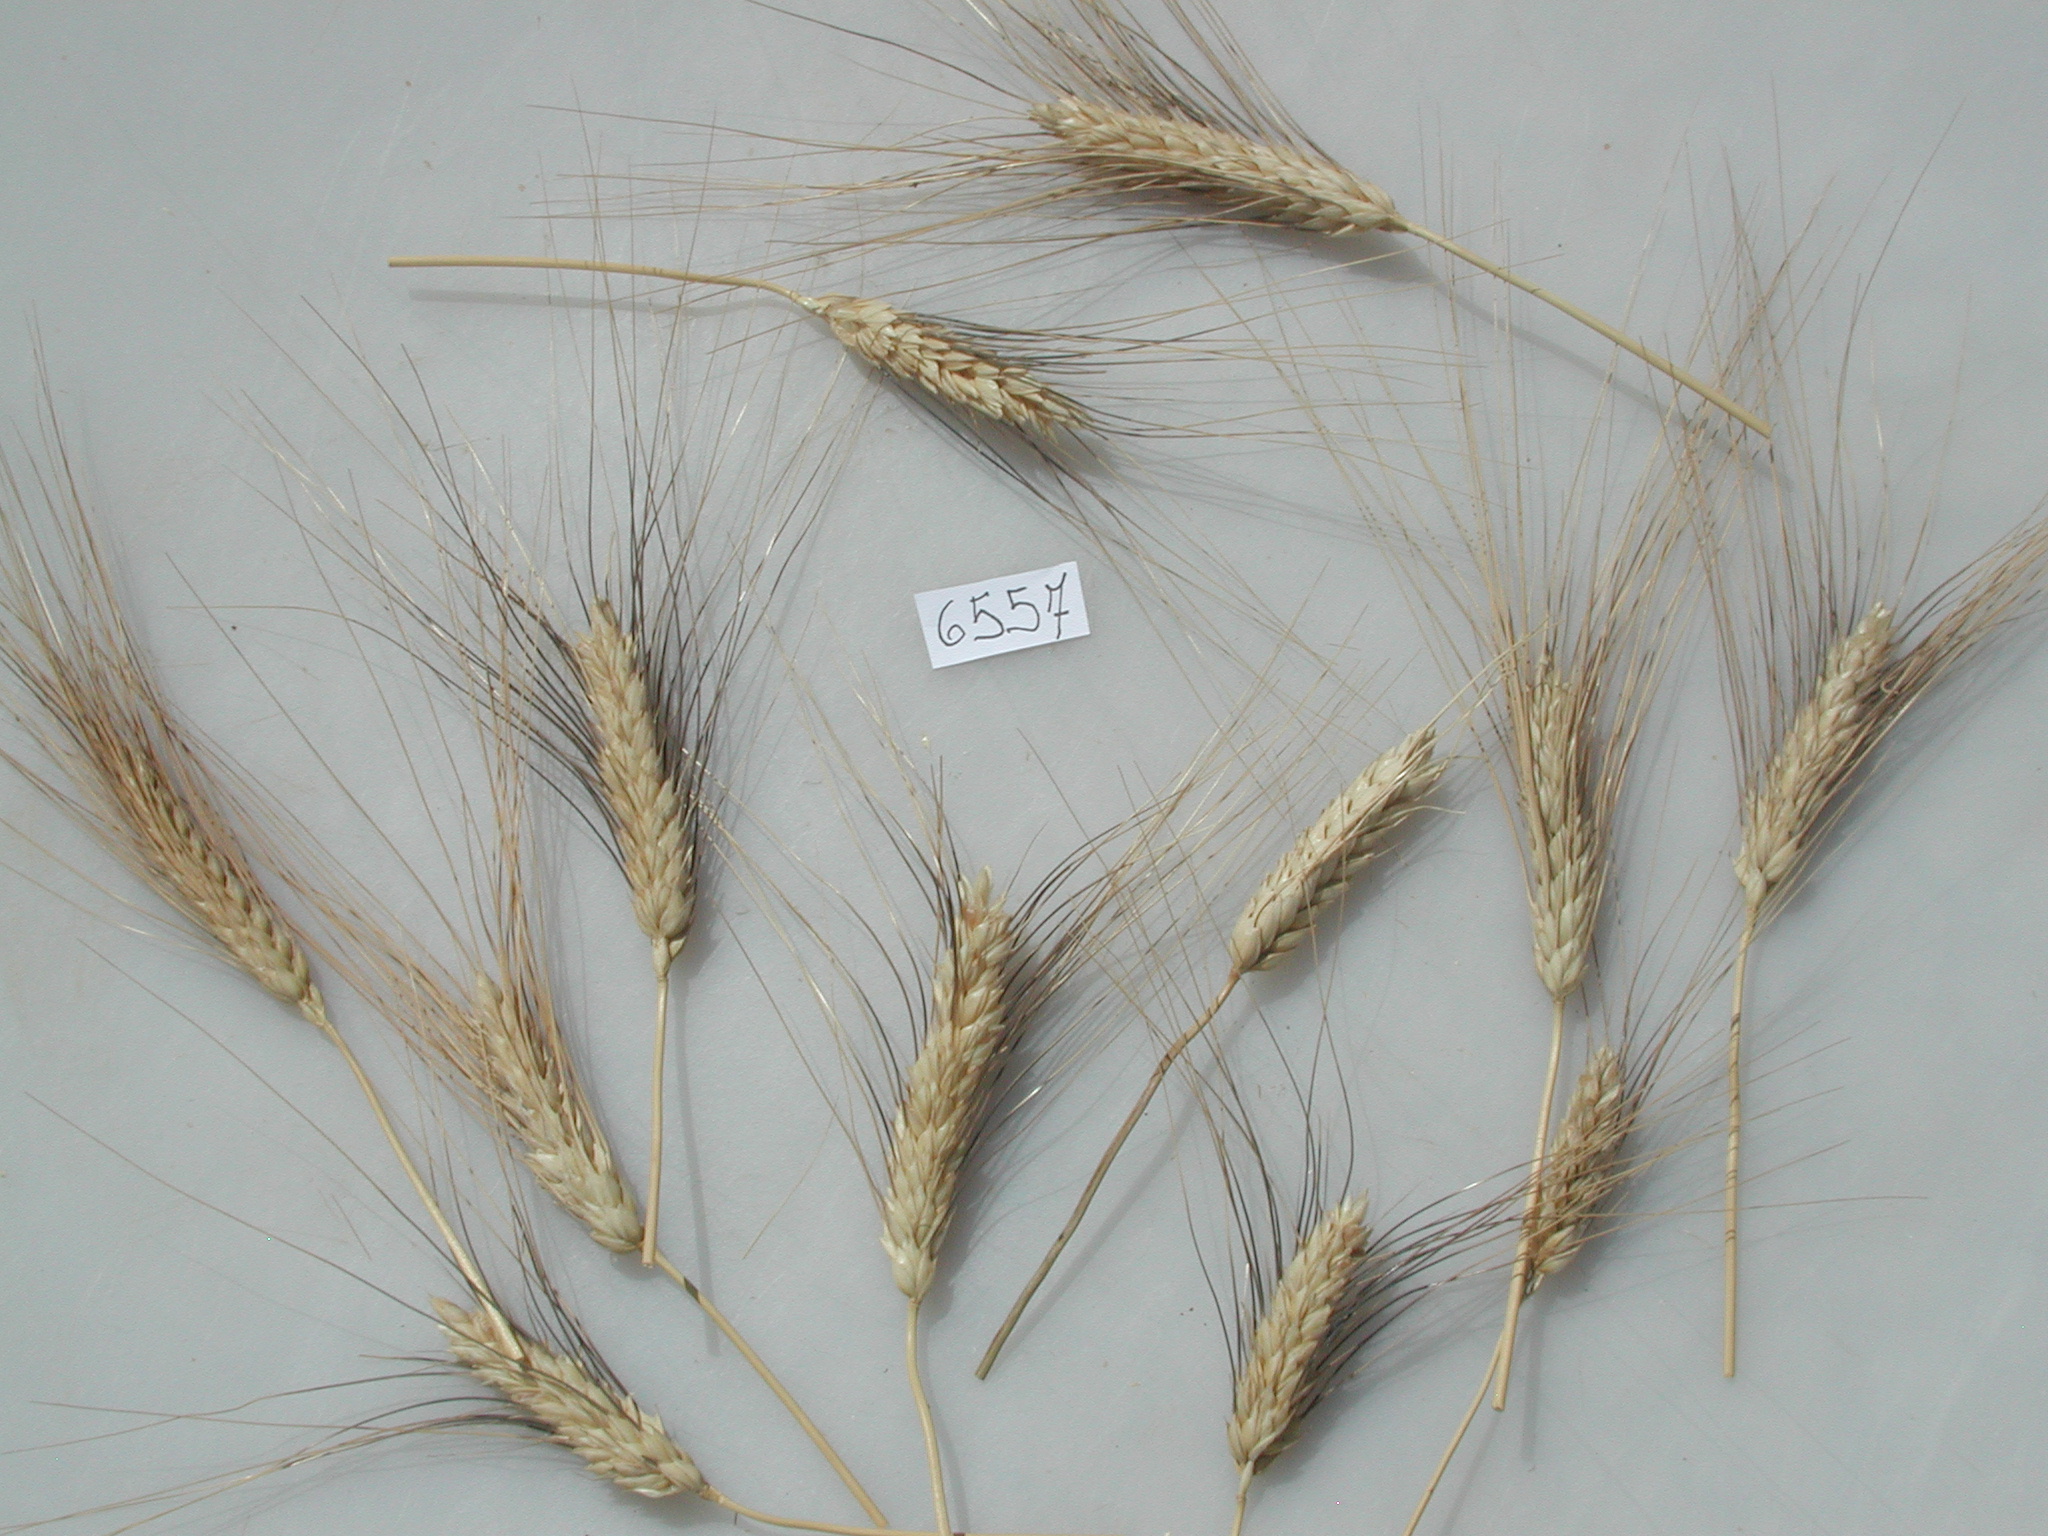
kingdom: Plantae
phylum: Tracheophyta
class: Liliopsida
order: Poales
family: Poaceae
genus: Triticum
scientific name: Triticum aestivum
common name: Wheat
